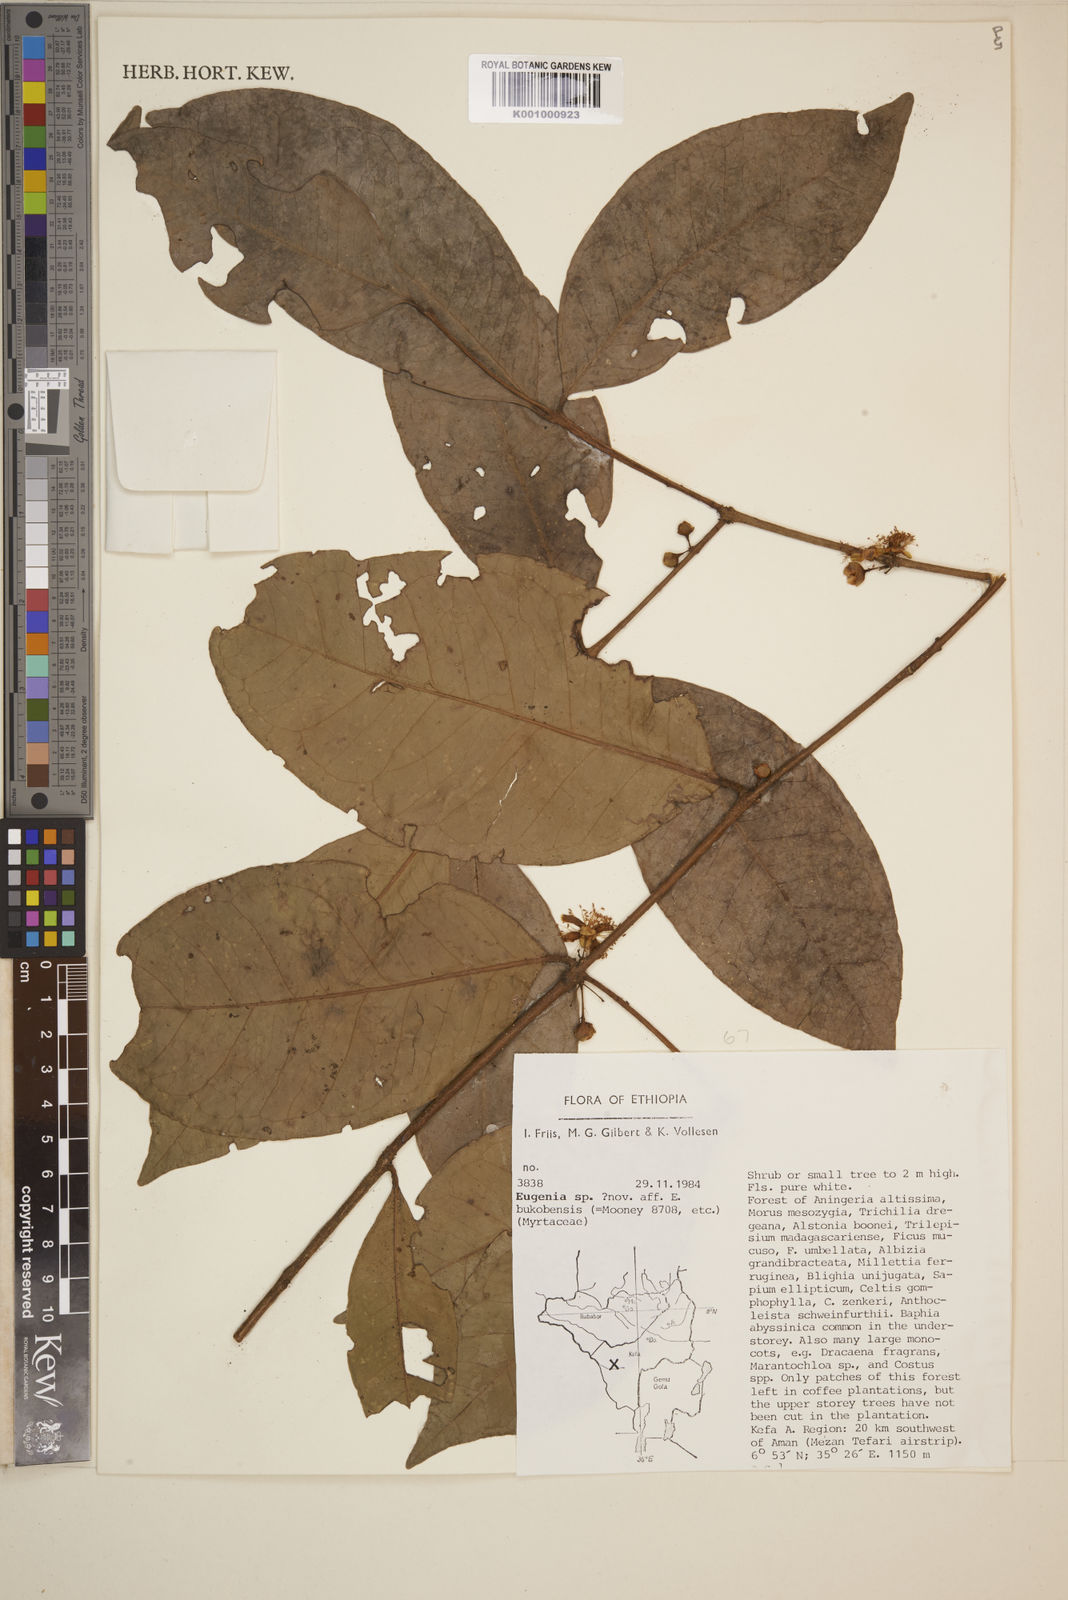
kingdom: Plantae
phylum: Tracheophyta
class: Magnoliopsida
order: Myrtales
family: Myrtaceae
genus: Eugenia
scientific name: Eugenia bukobensis
